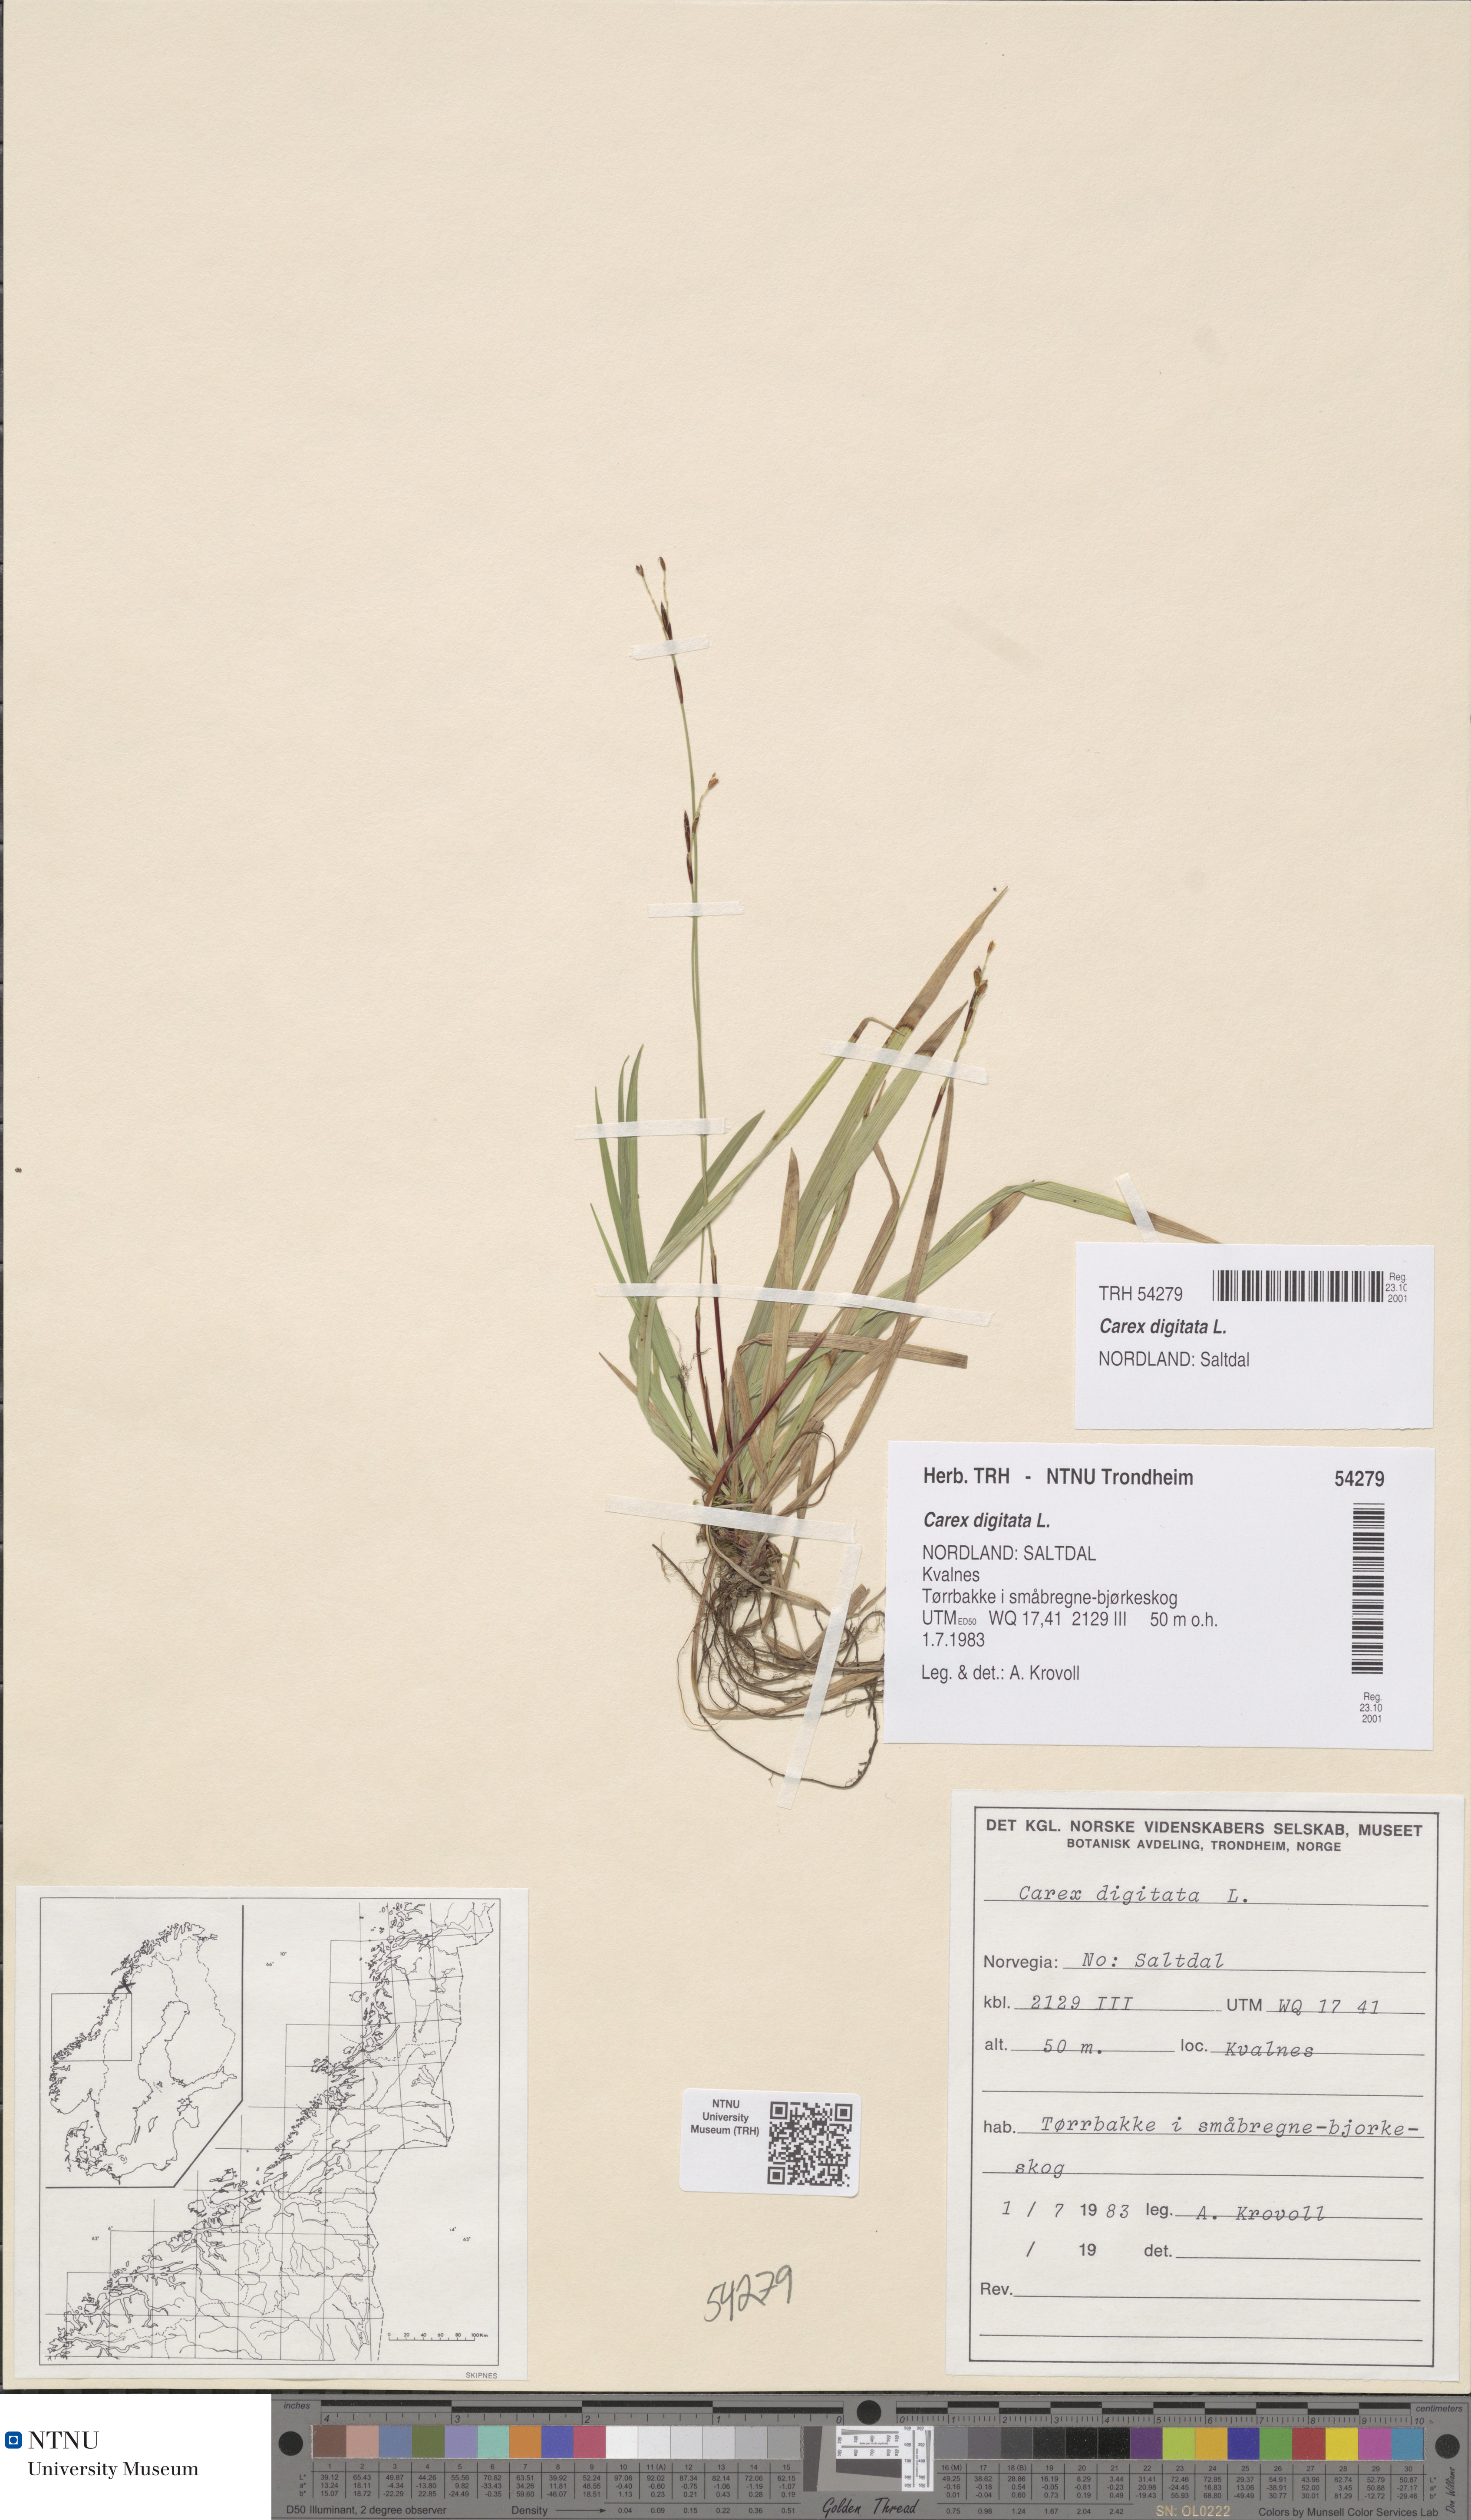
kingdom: Plantae
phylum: Tracheophyta
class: Liliopsida
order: Poales
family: Cyperaceae
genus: Carex
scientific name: Carex digitata
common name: Fingered sedge
